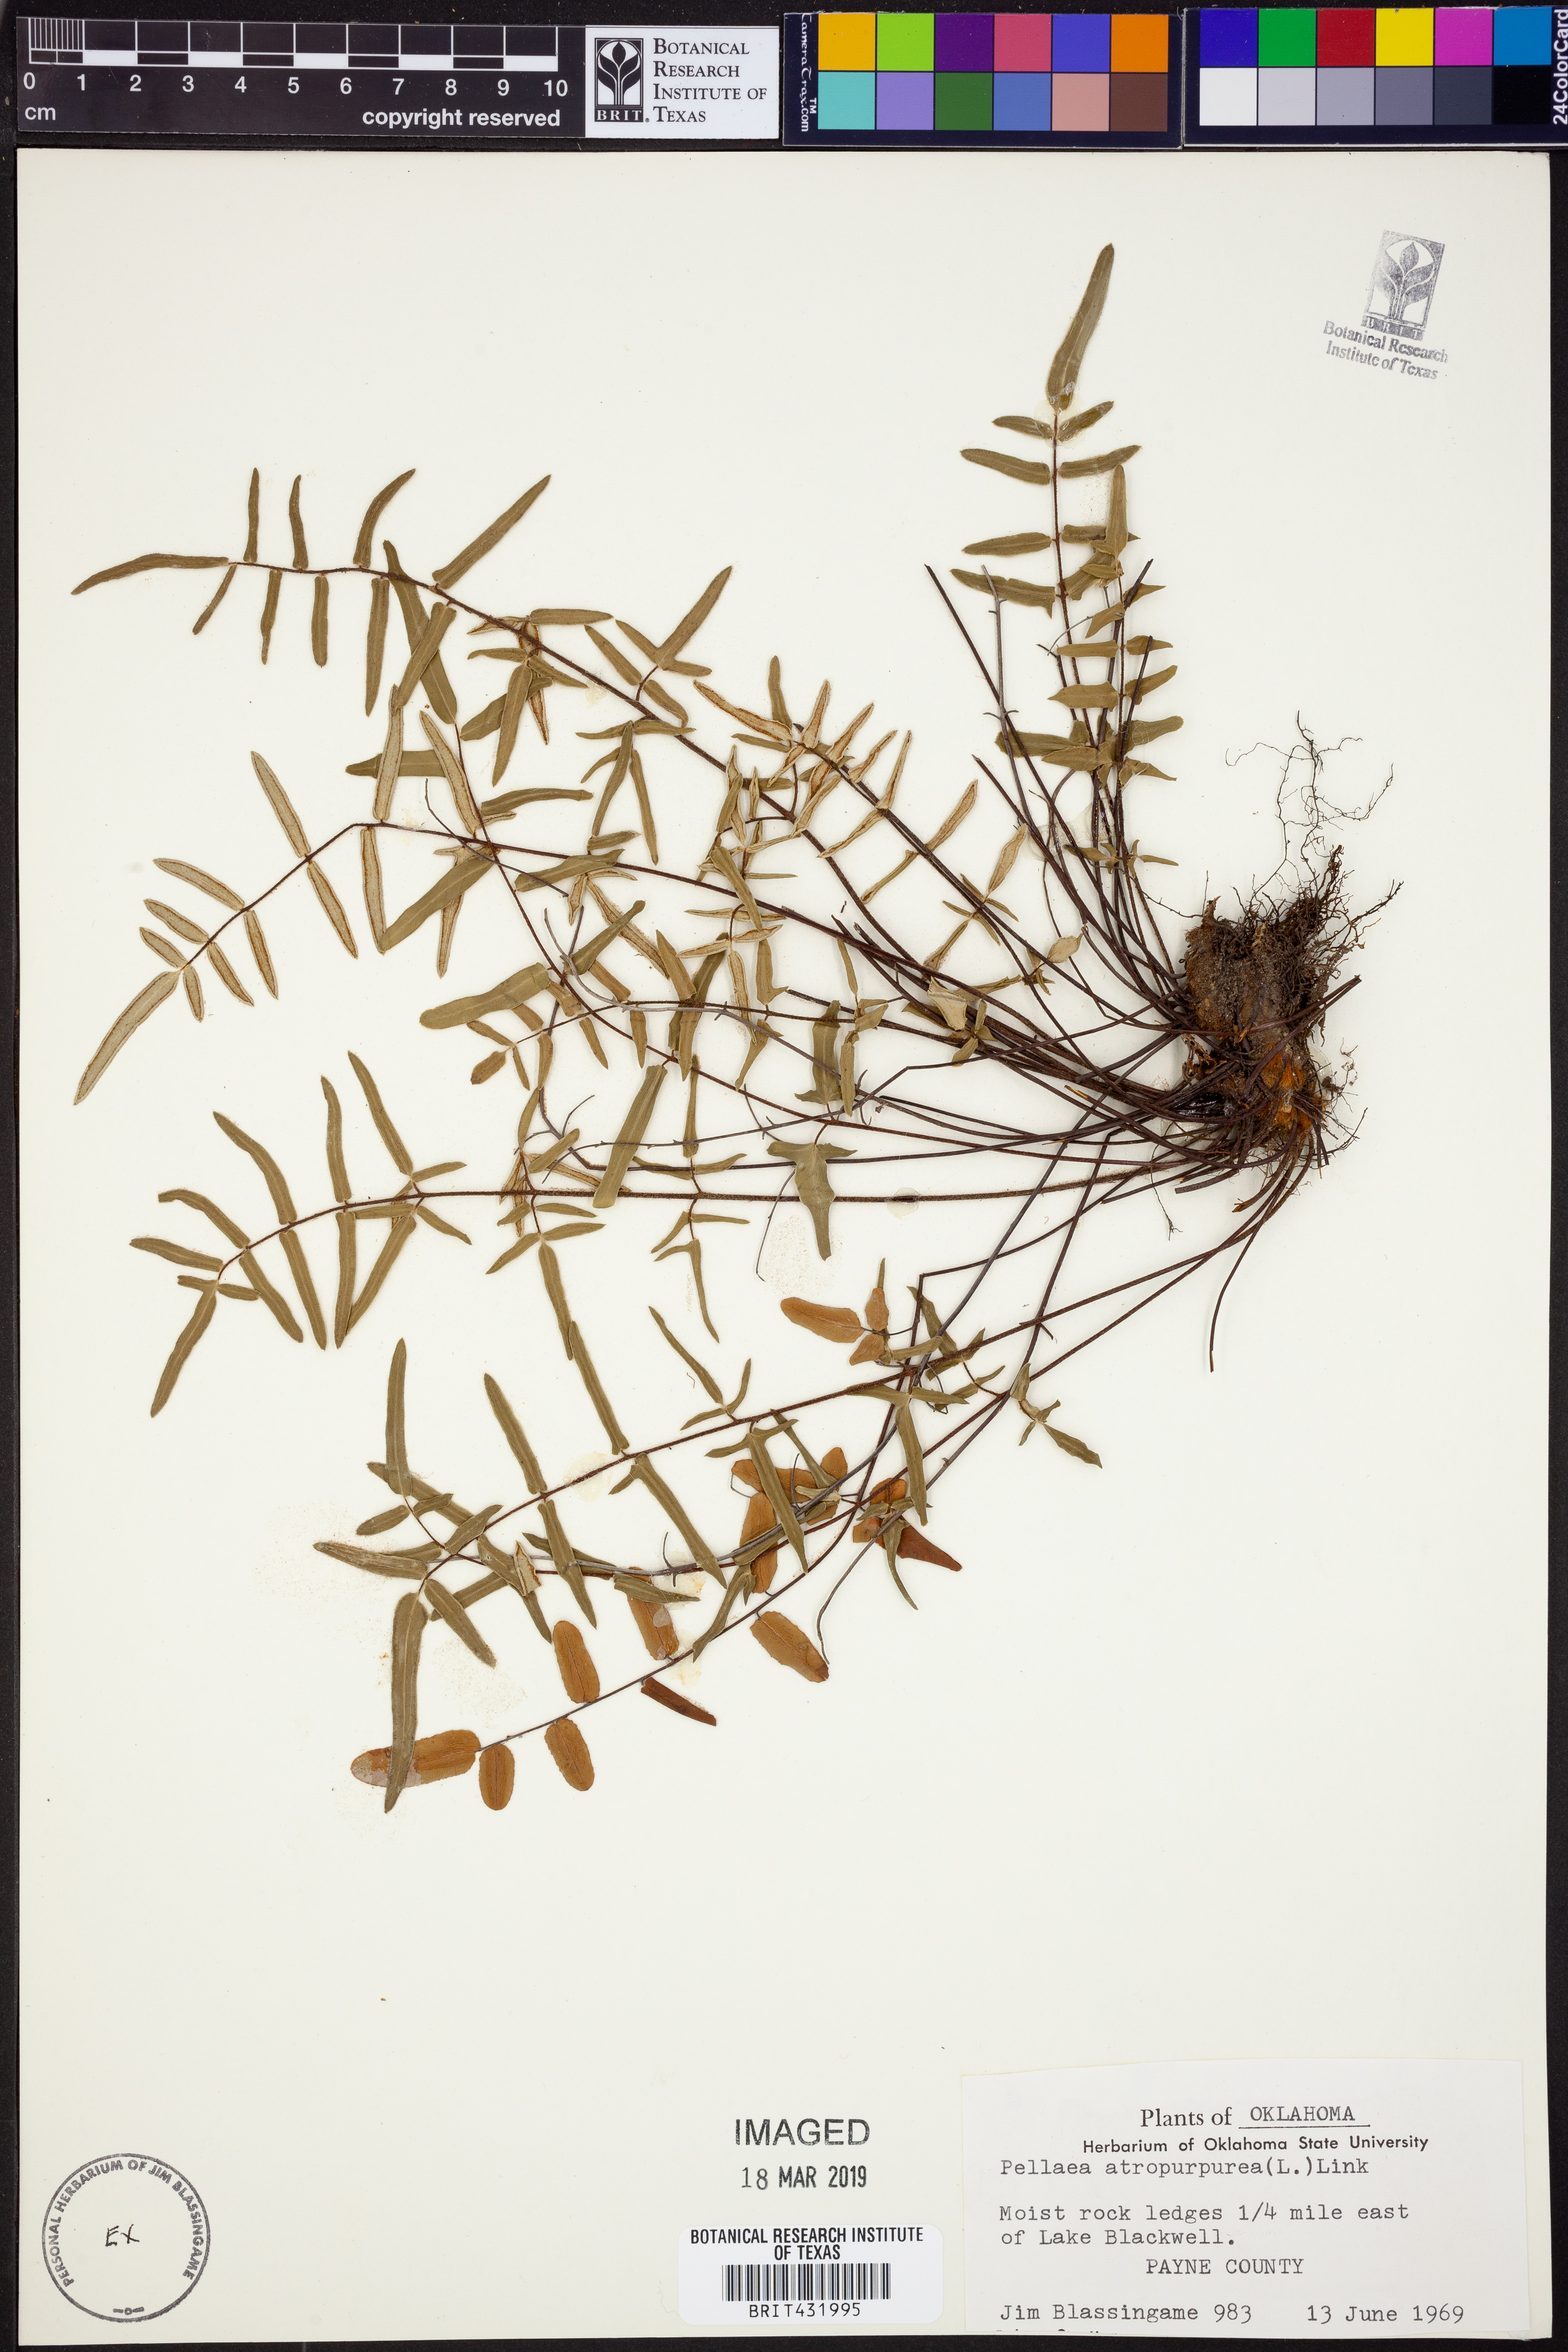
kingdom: Plantae
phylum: Tracheophyta
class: Polypodiopsida
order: Polypodiales
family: Pteridaceae
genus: Pellaea
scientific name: Pellaea atropurpurea
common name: Hairy cliffbrake
